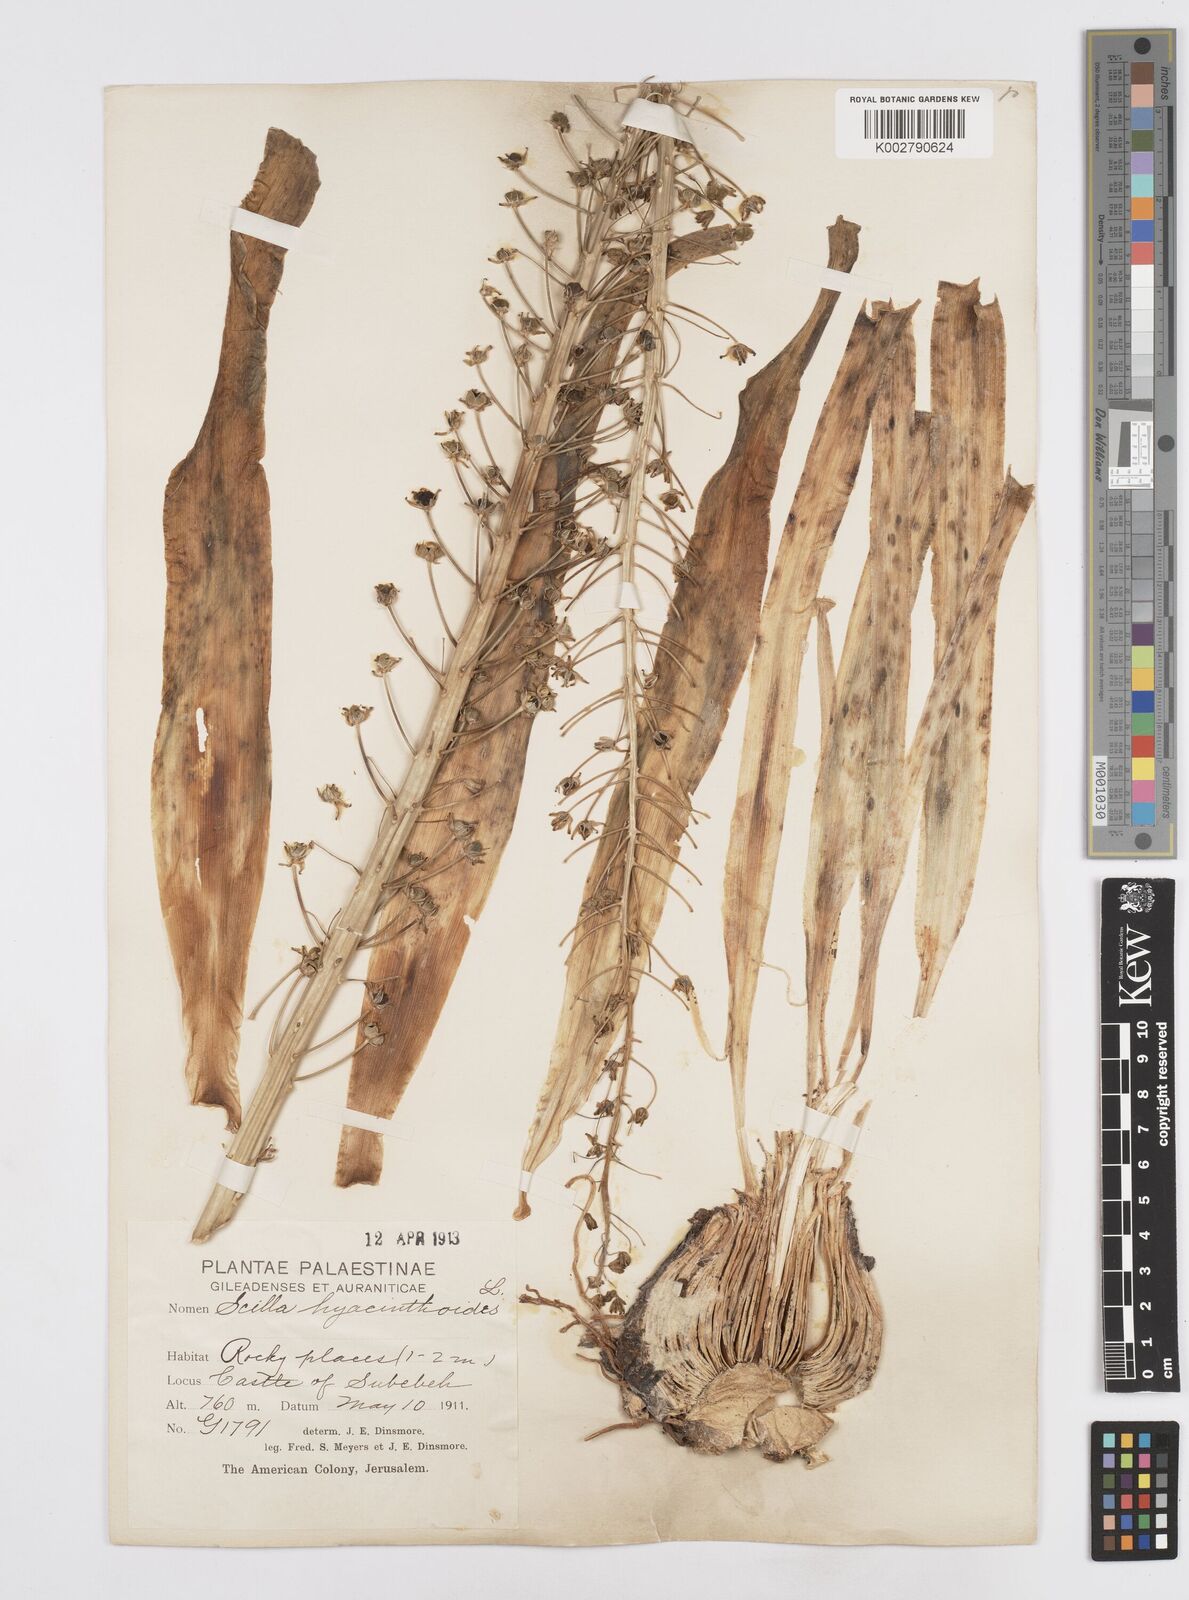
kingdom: Plantae
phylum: Tracheophyta
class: Liliopsida
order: Asparagales
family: Asparagaceae
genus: Scilla
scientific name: Scilla hyacinthoides
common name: Scilla
